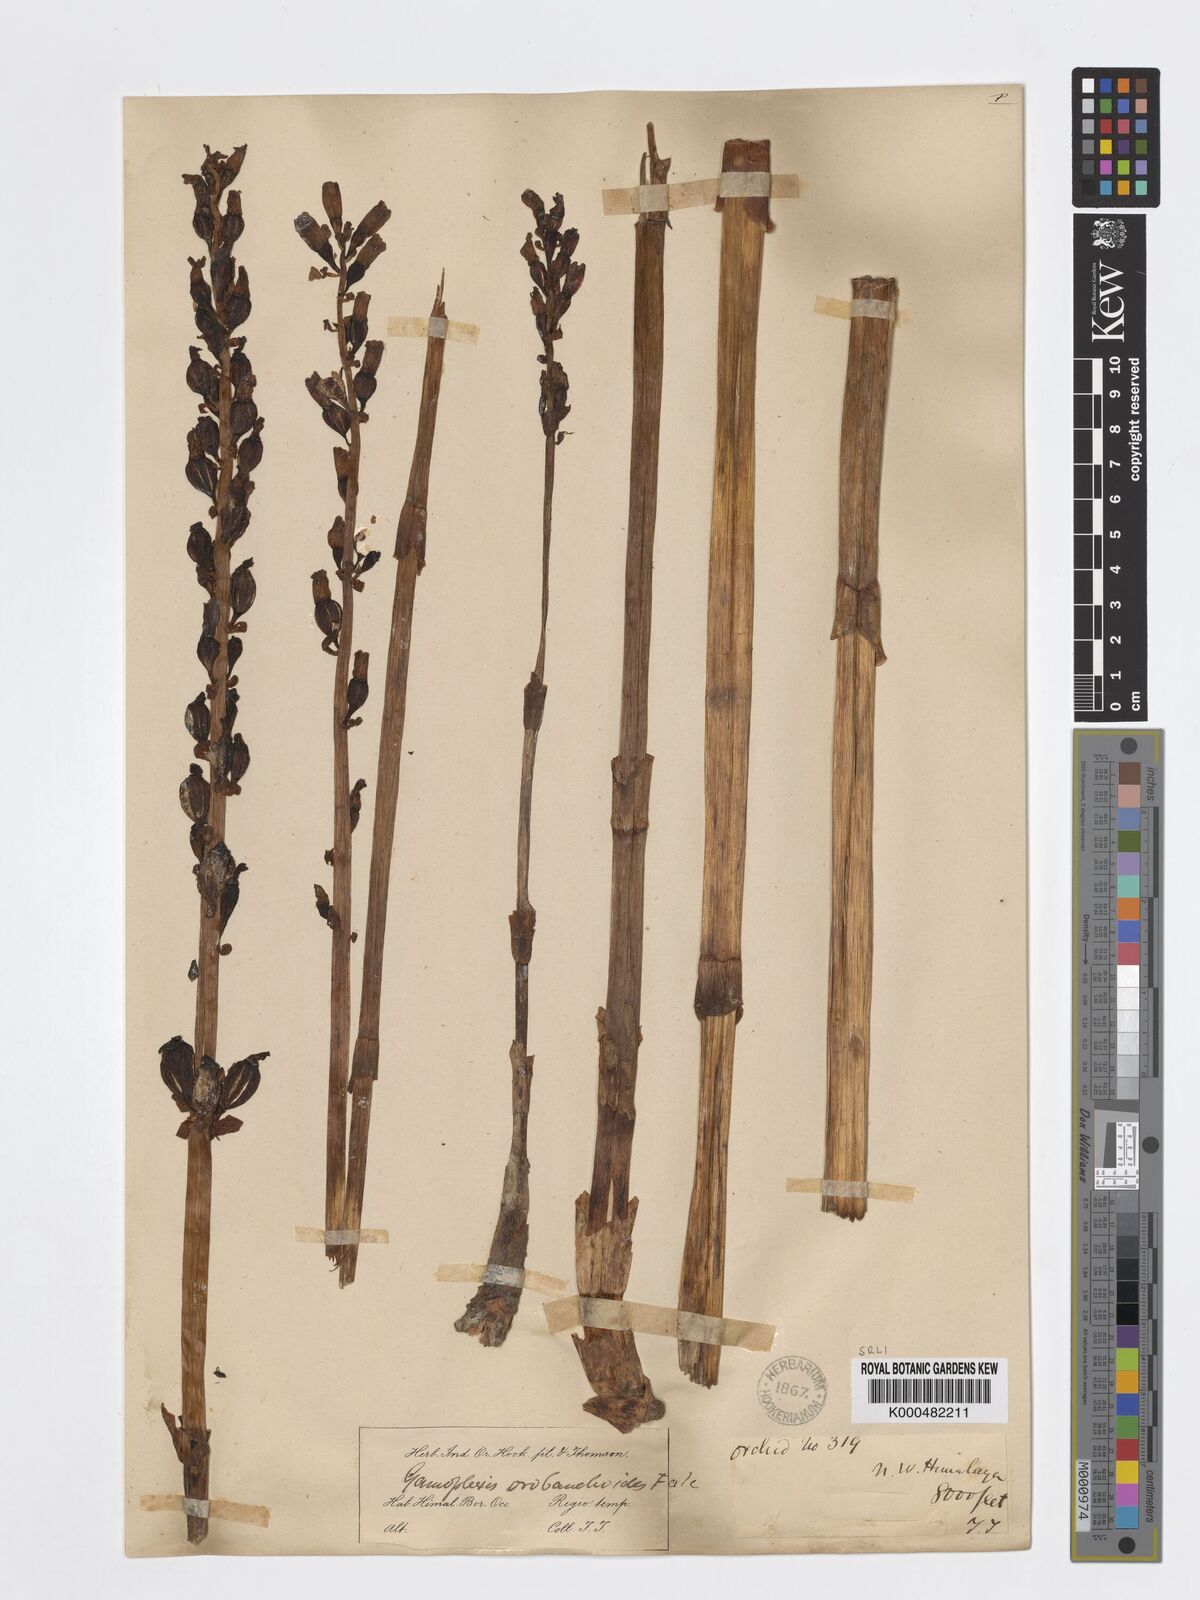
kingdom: Plantae
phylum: Tracheophyta
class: Liliopsida
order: Asparagales
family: Orchidaceae
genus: Gastrodia
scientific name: Gastrodia falconeri
